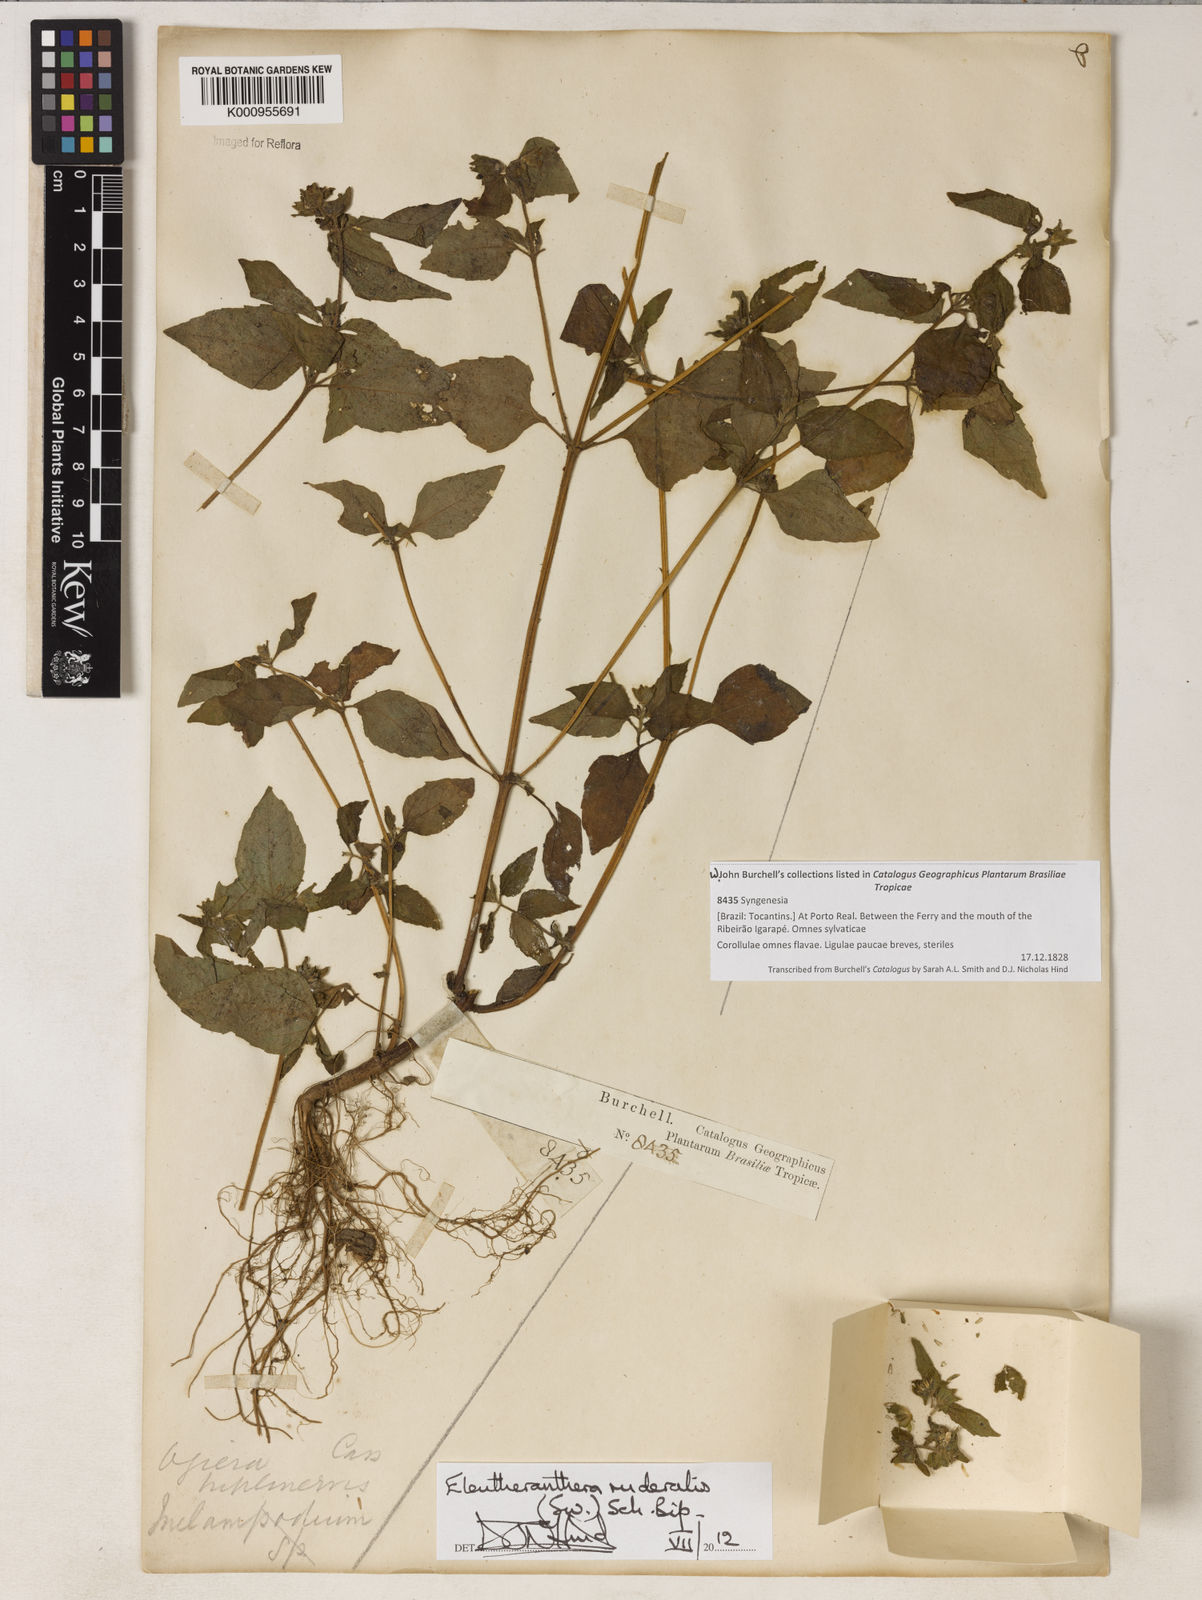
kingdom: Plantae
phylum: Tracheophyta
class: Magnoliopsida
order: Asterales
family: Asteraceae
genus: Eleutheranthera
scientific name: Eleutheranthera ruderalis
